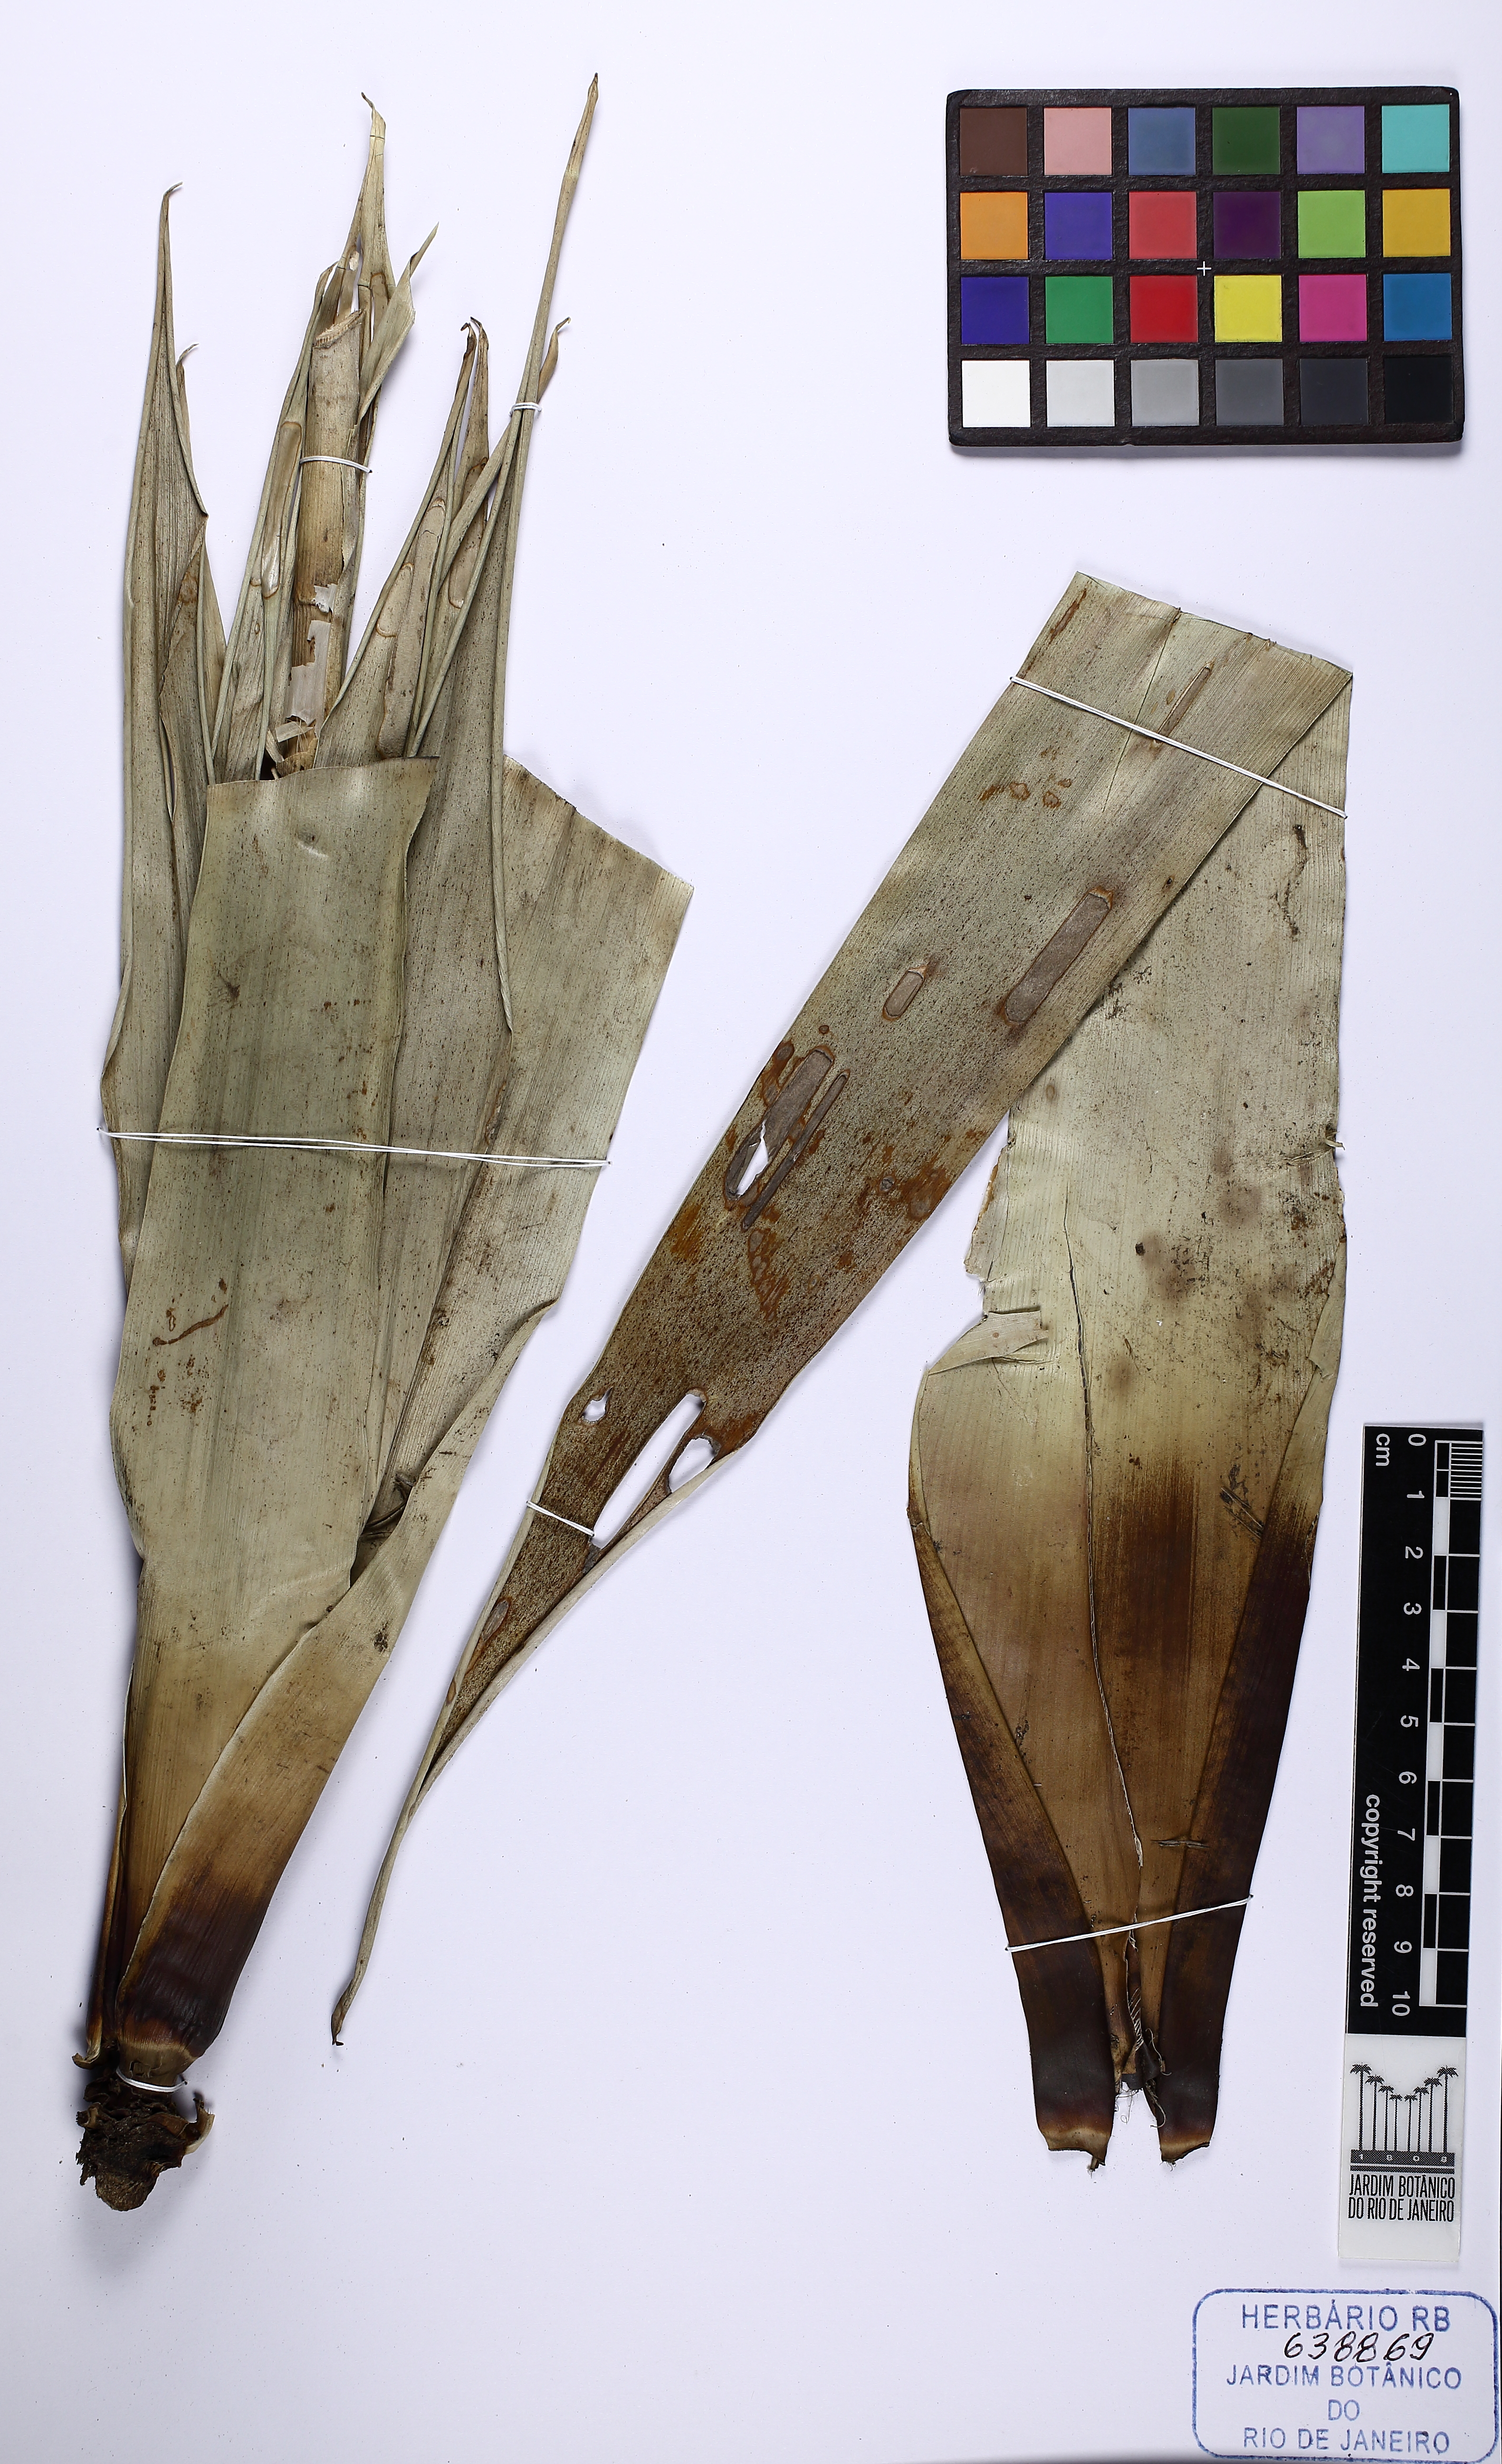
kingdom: Plantae
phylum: Tracheophyta
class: Liliopsida
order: Poales
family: Bromeliaceae
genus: Vriesea
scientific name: Vriesea
